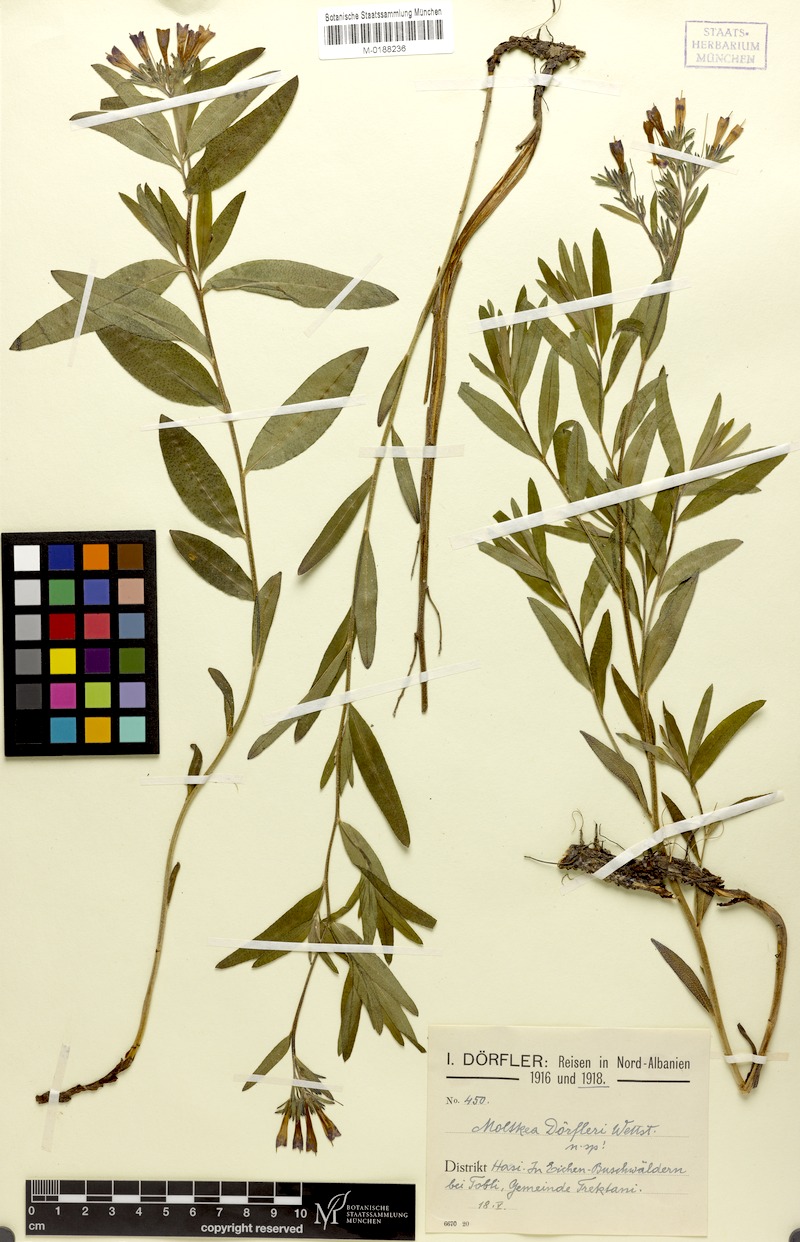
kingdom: Plantae
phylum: Tracheophyta
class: Magnoliopsida
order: Boraginales
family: Boraginaceae
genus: Paramoltkia
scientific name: Paramoltkia doerfleri
